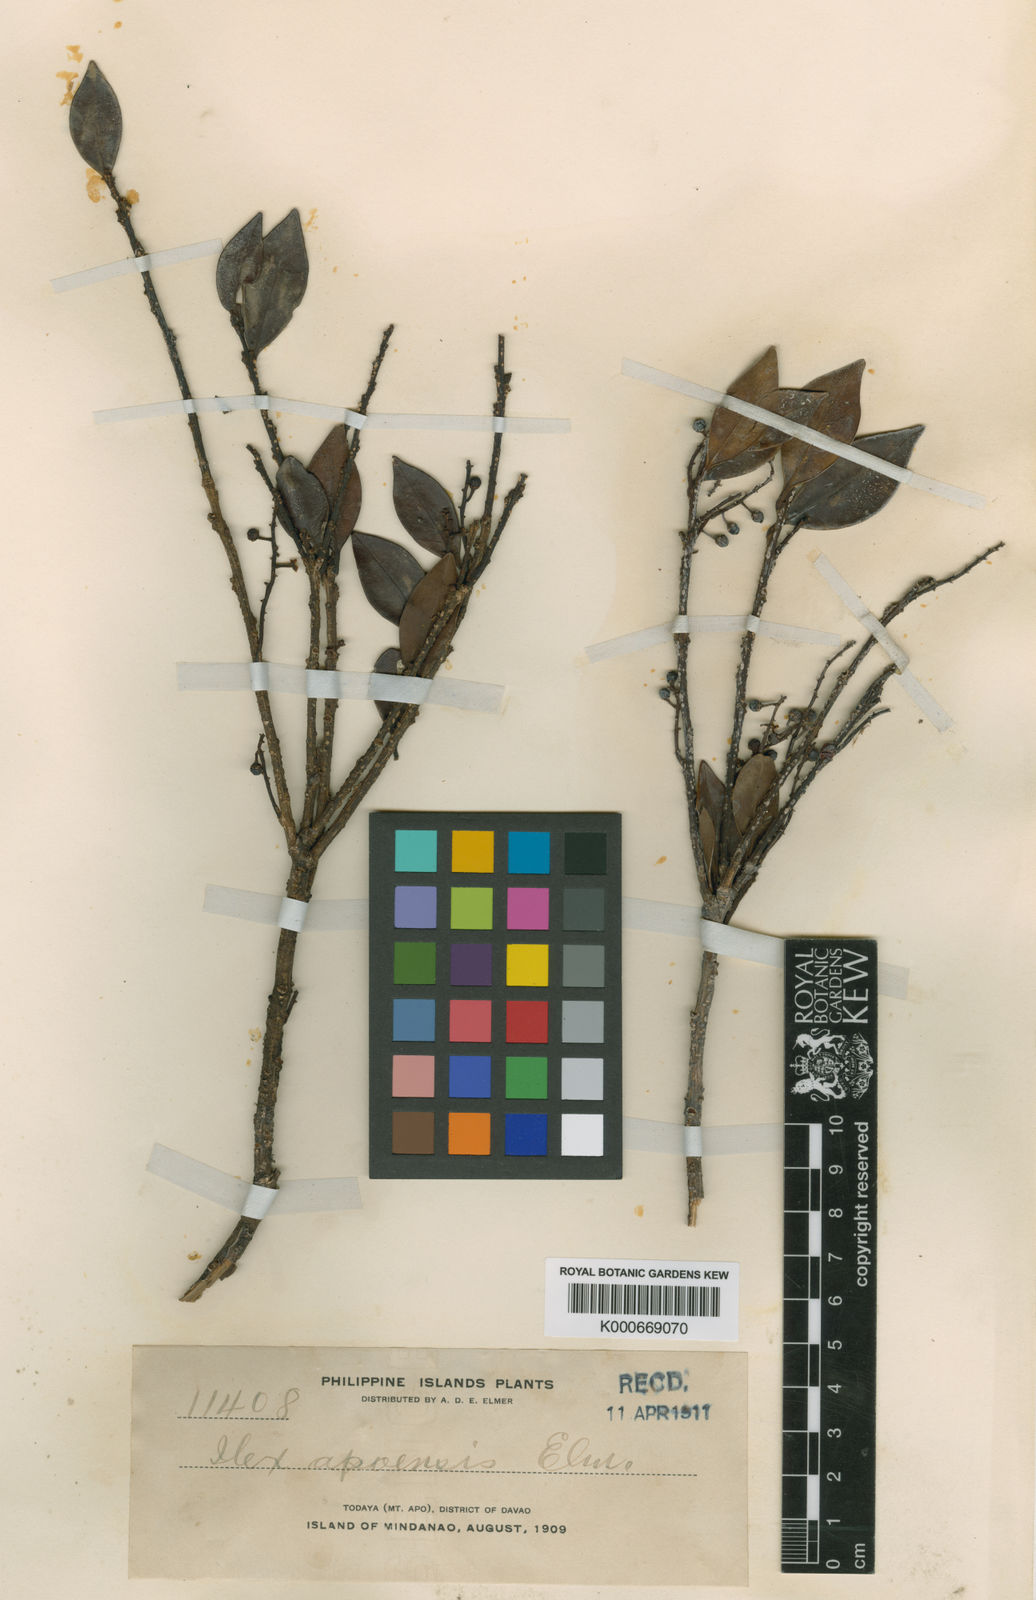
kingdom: Plantae
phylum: Tracheophyta
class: Magnoliopsida
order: Aquifoliales
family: Aquifoliaceae
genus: Ilex
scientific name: Ilex malaccensis
